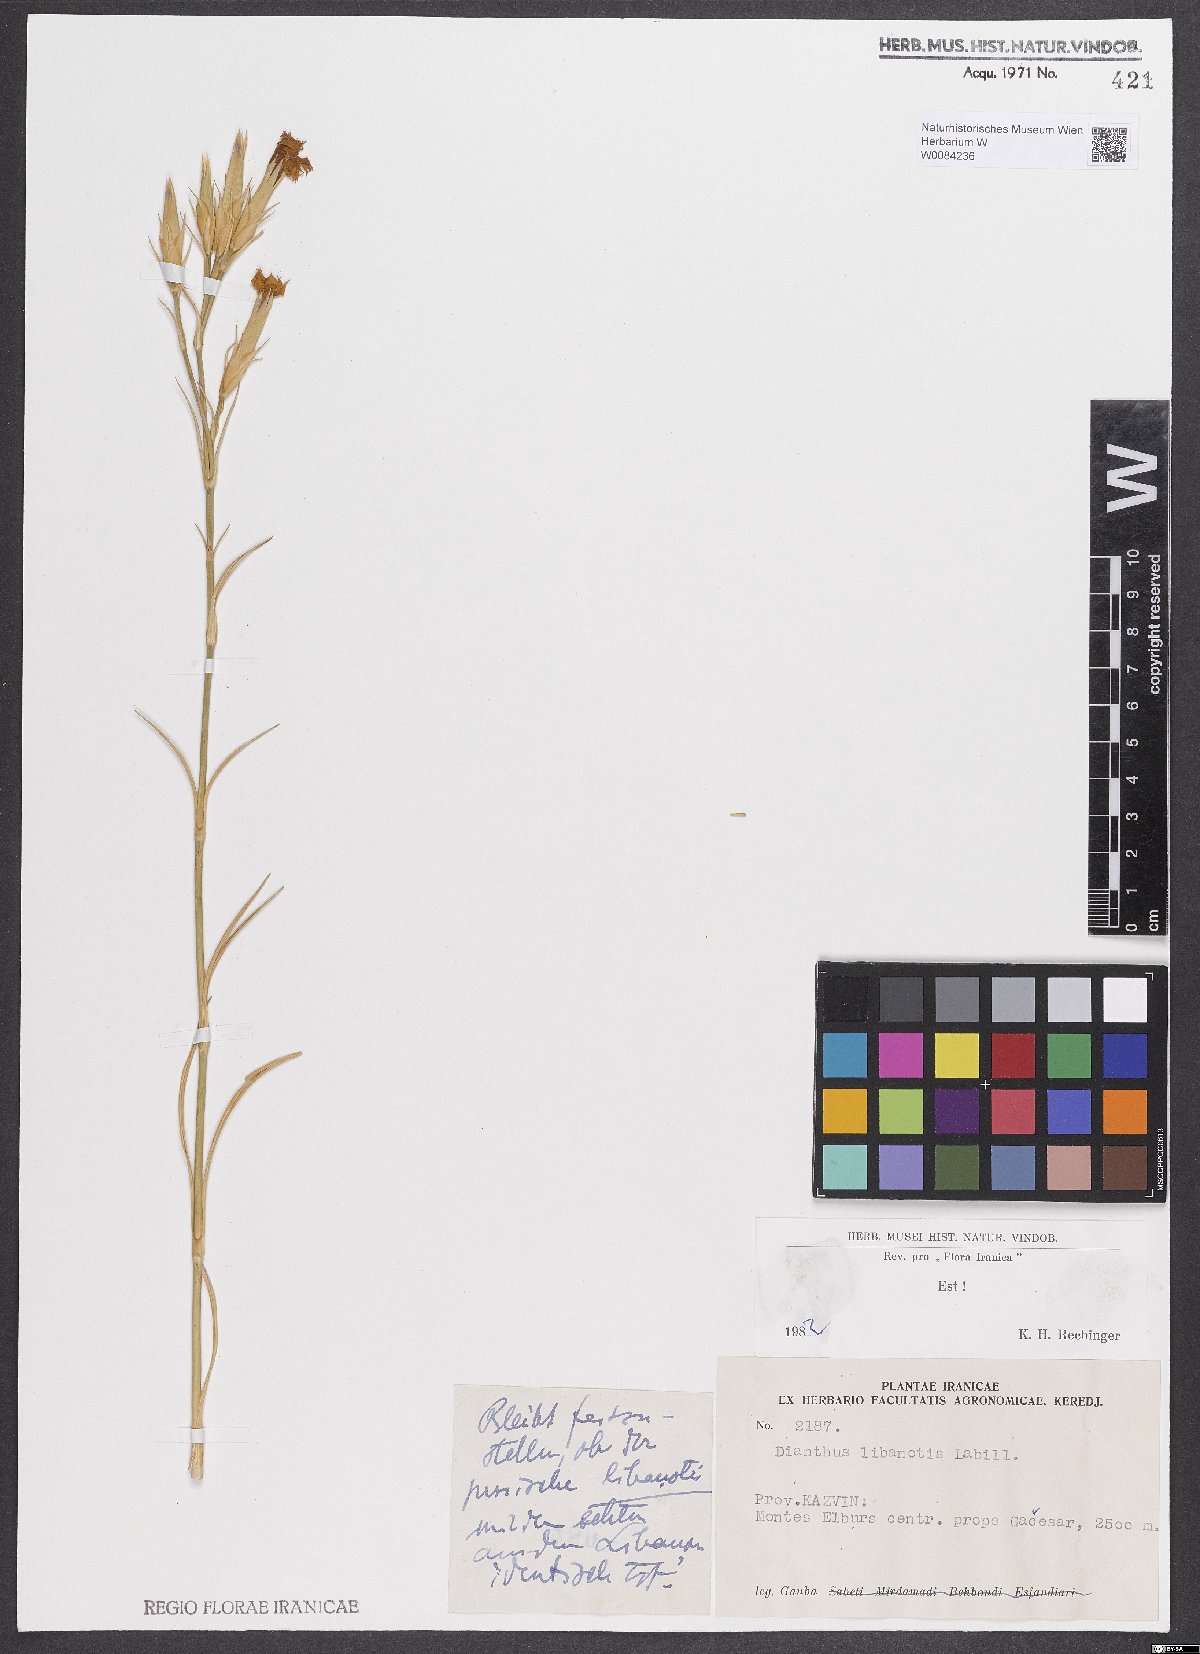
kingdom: Plantae
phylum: Tracheophyta
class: Magnoliopsida
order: Caryophyllales
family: Caryophyllaceae
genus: Dianthus
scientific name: Dianthus libanotis
